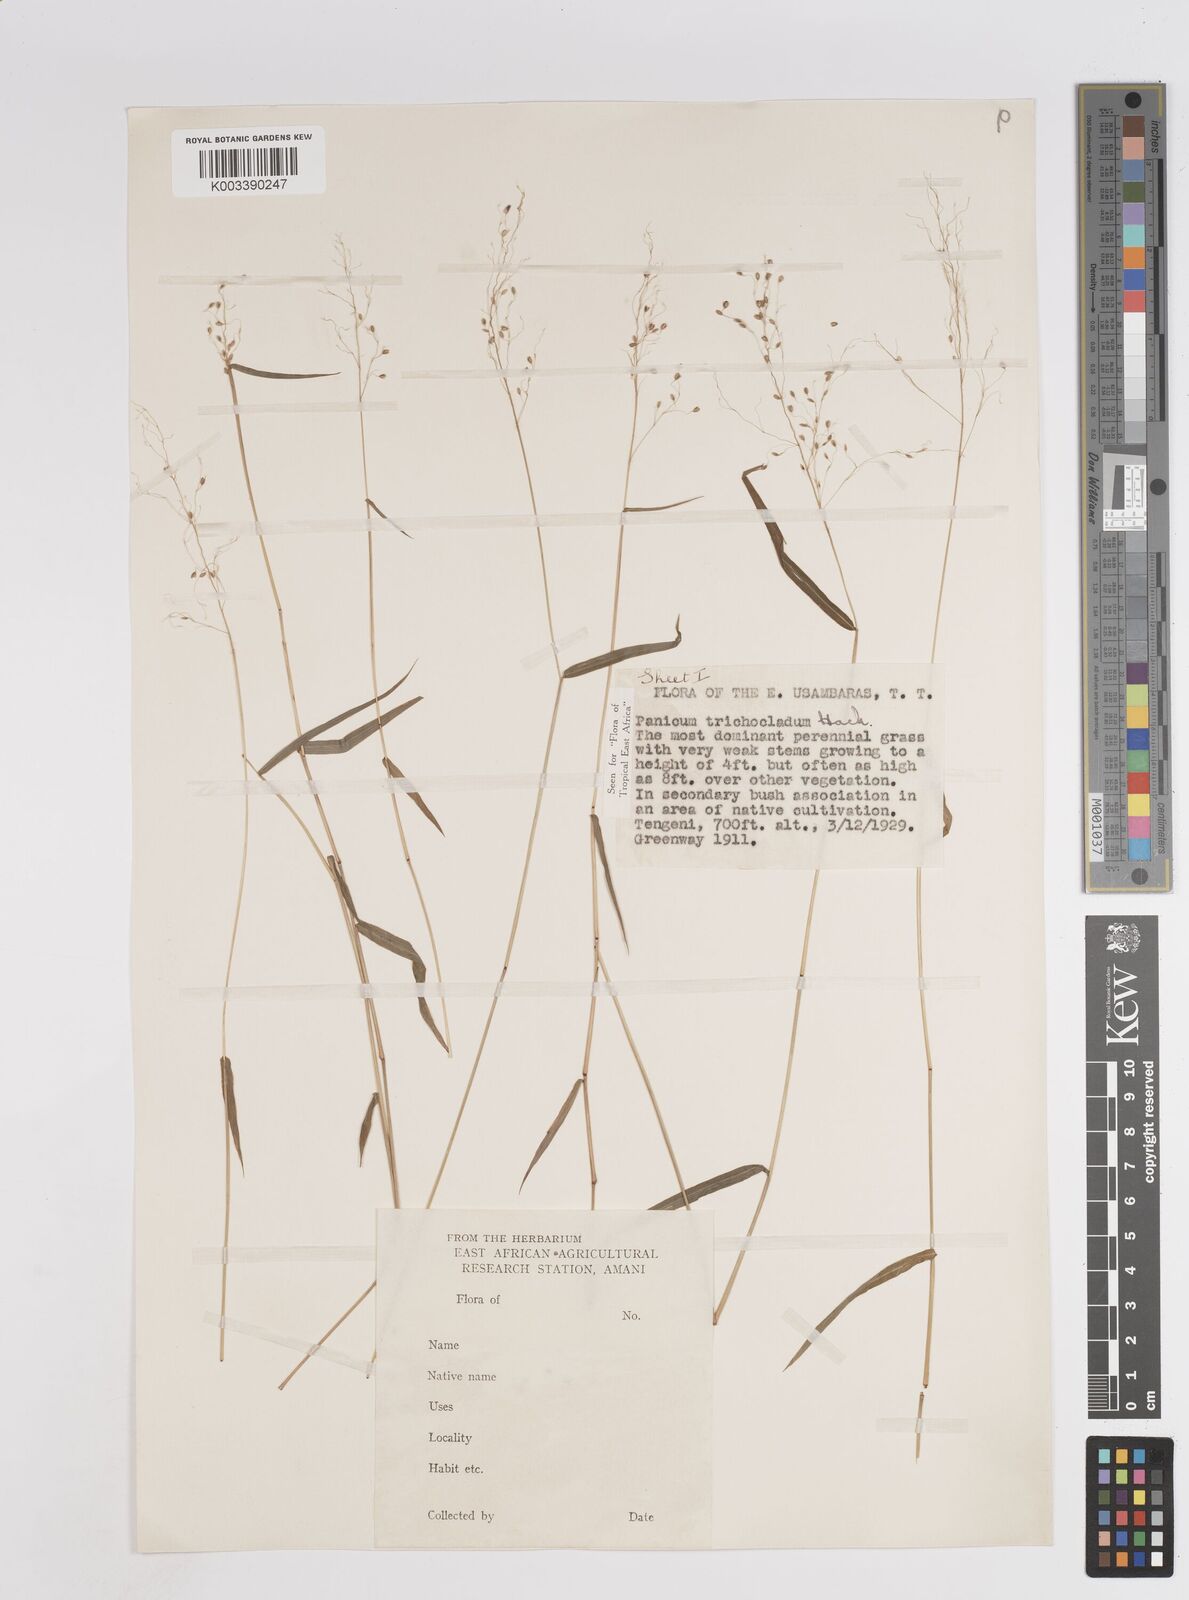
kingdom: Plantae
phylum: Tracheophyta
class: Liliopsida
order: Poales
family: Poaceae
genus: Panicum
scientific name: Panicum trichocladum
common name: Donkey grass
